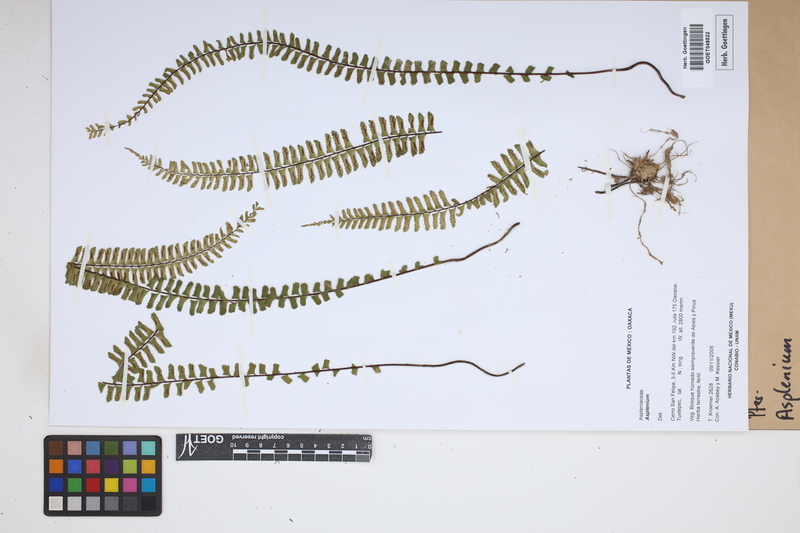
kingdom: Plantae
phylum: Tracheophyta
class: Polypodiopsida
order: Polypodiales
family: Aspleniaceae
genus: Asplenium
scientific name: Asplenium
